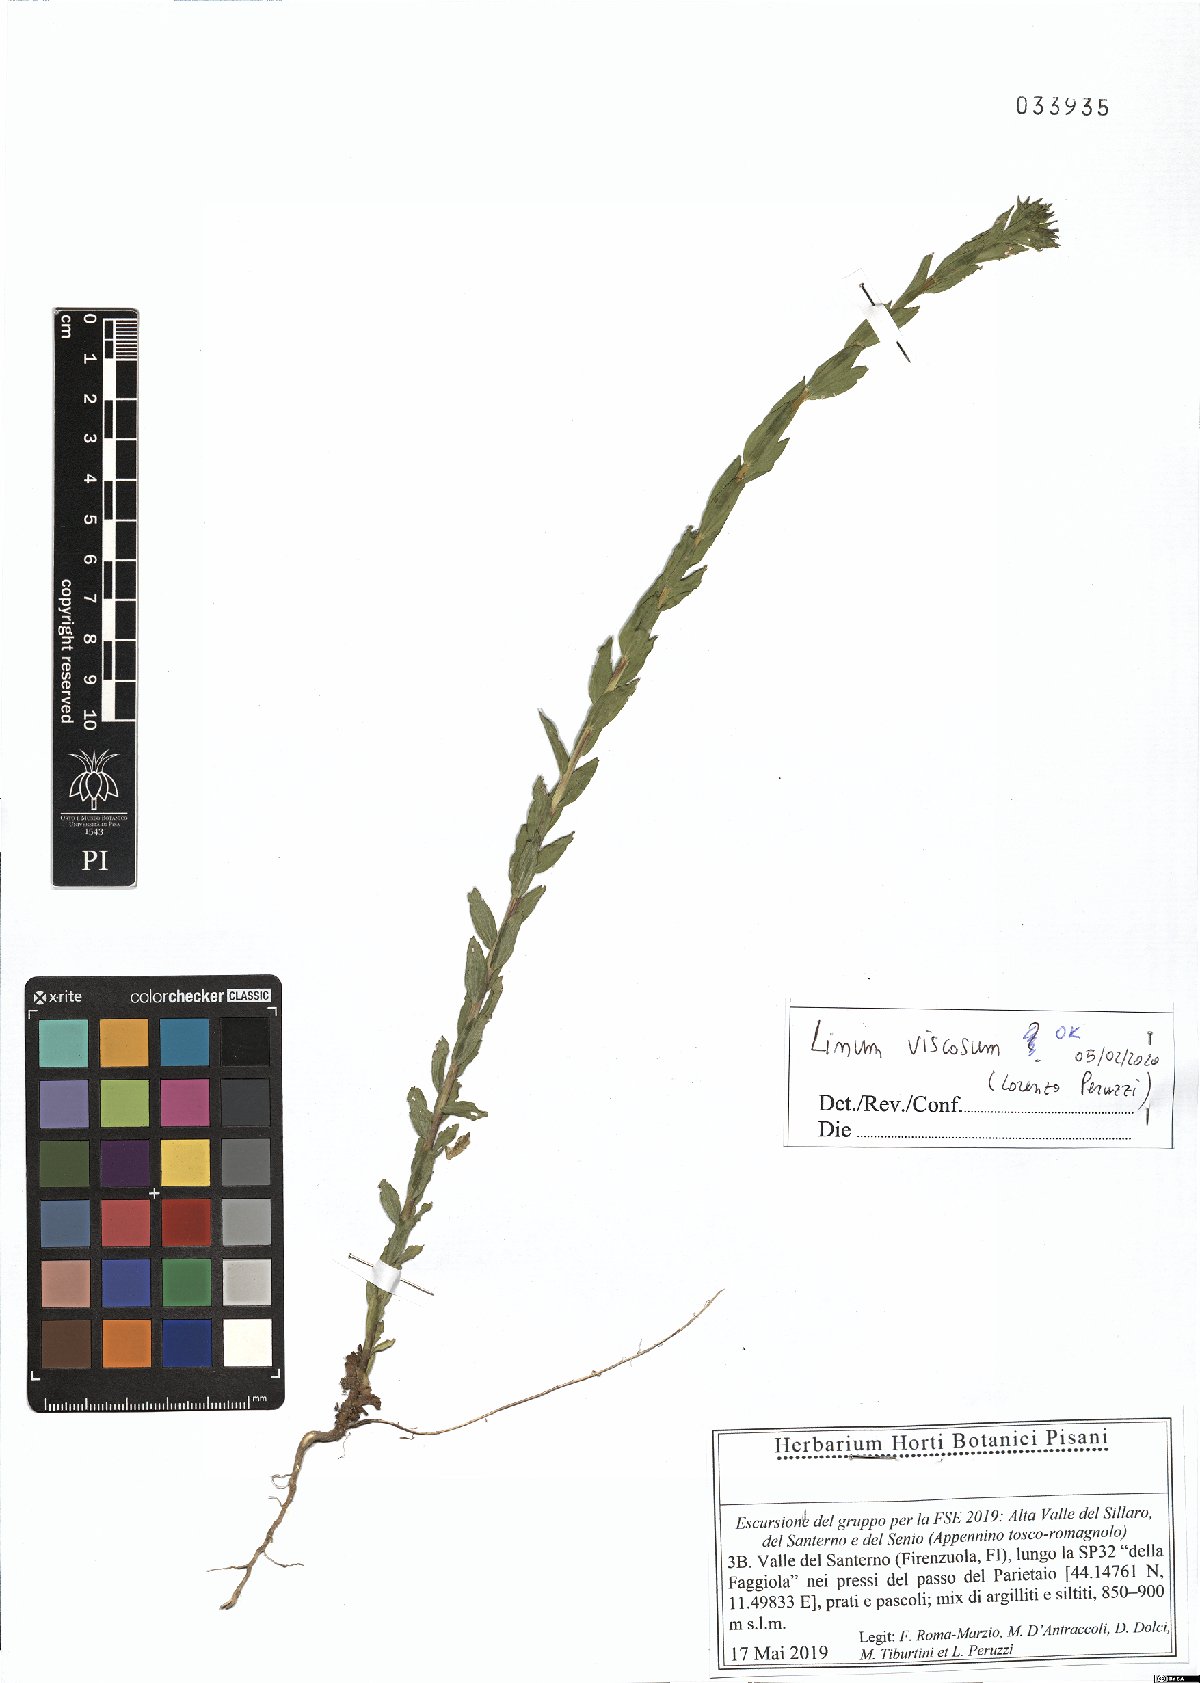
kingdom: Plantae
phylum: Tracheophyta
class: Magnoliopsida
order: Malpighiales
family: Linaceae
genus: Linum
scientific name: Linum viscosum
